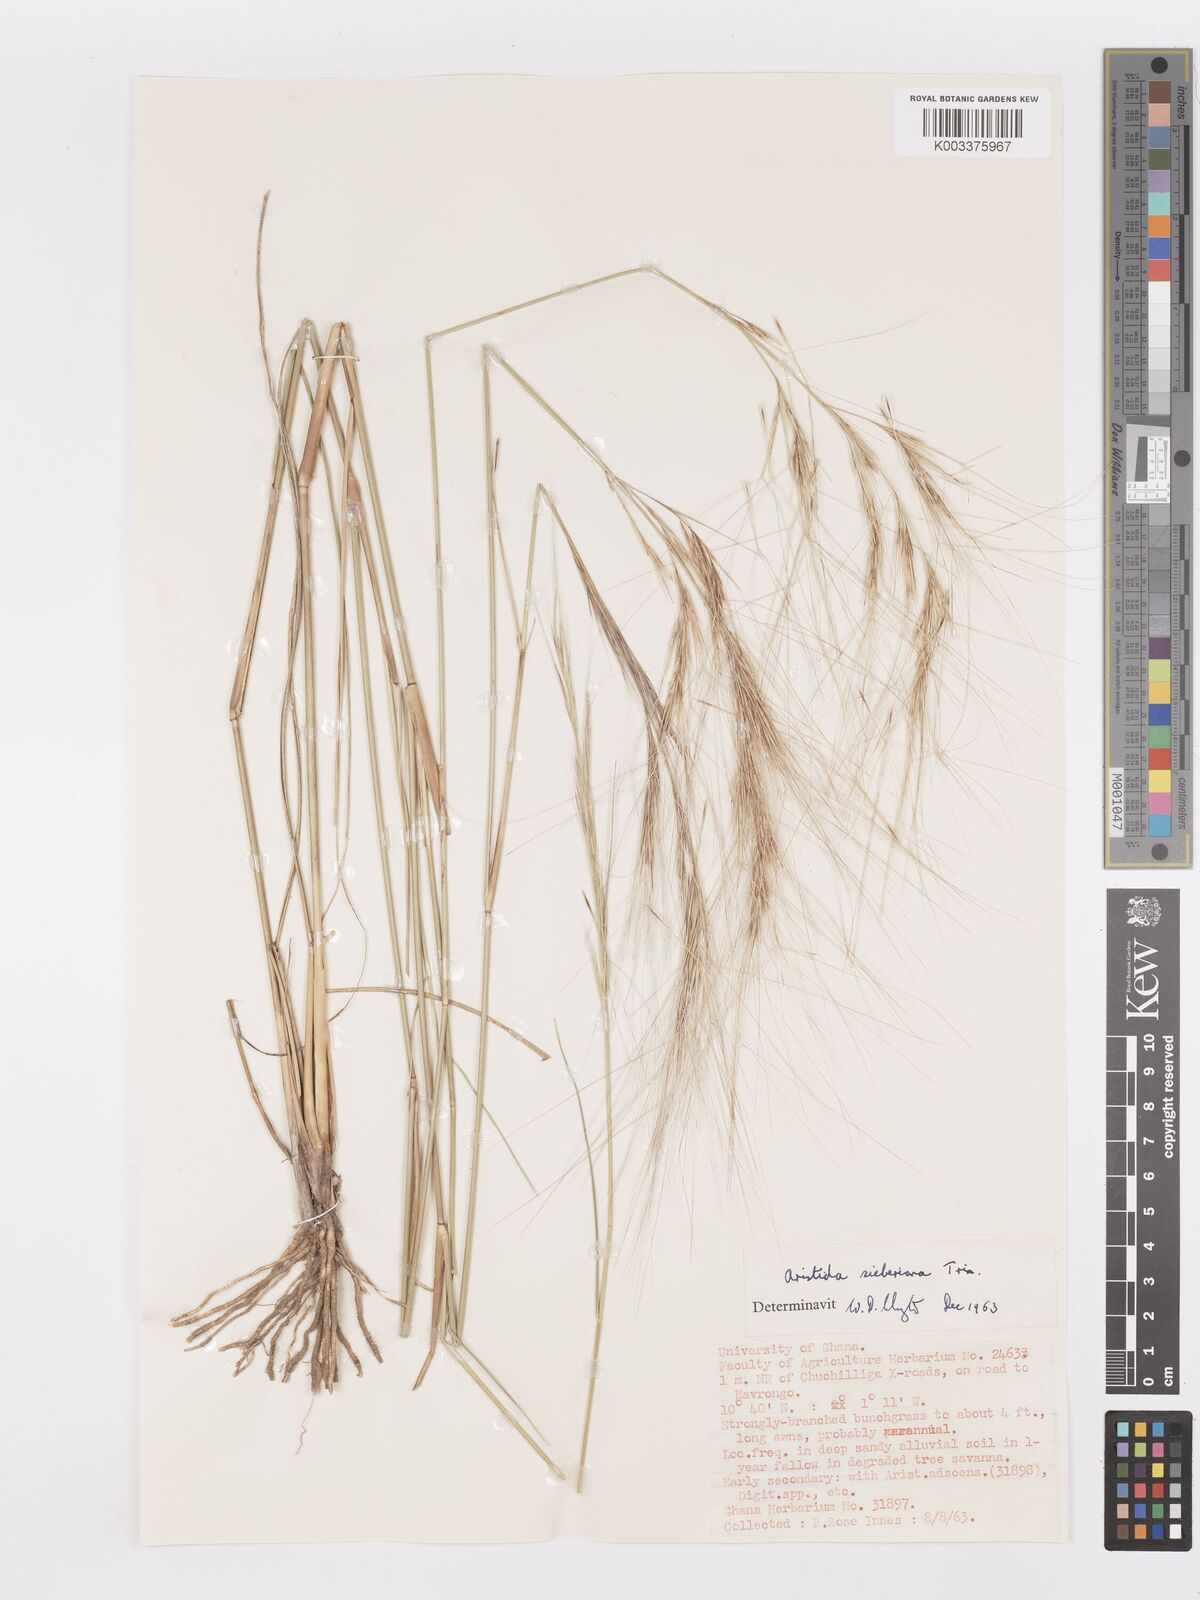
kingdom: Plantae
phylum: Tracheophyta
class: Liliopsida
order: Poales
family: Poaceae
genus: Aristida
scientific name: Aristida sieberiana
